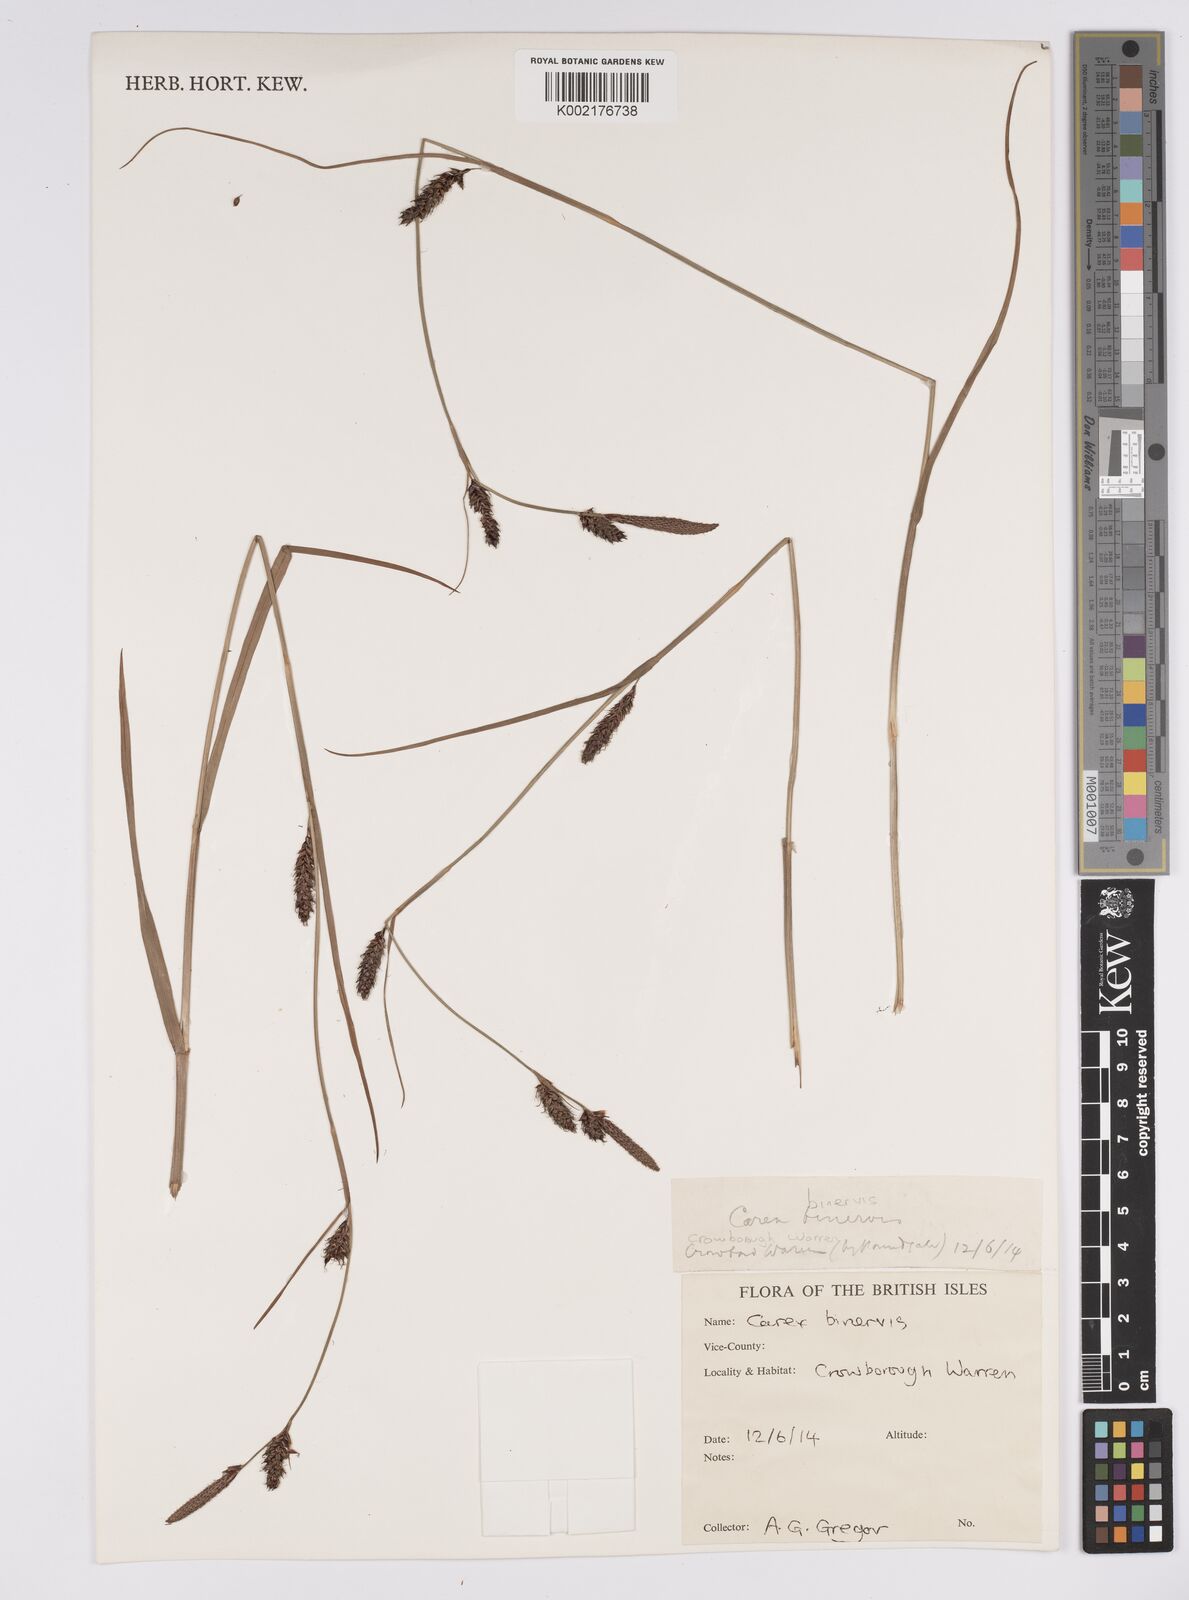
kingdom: Plantae
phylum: Tracheophyta
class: Liliopsida
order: Poales
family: Cyperaceae
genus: Carex
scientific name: Carex binervis
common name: Green-ribbed sedge
